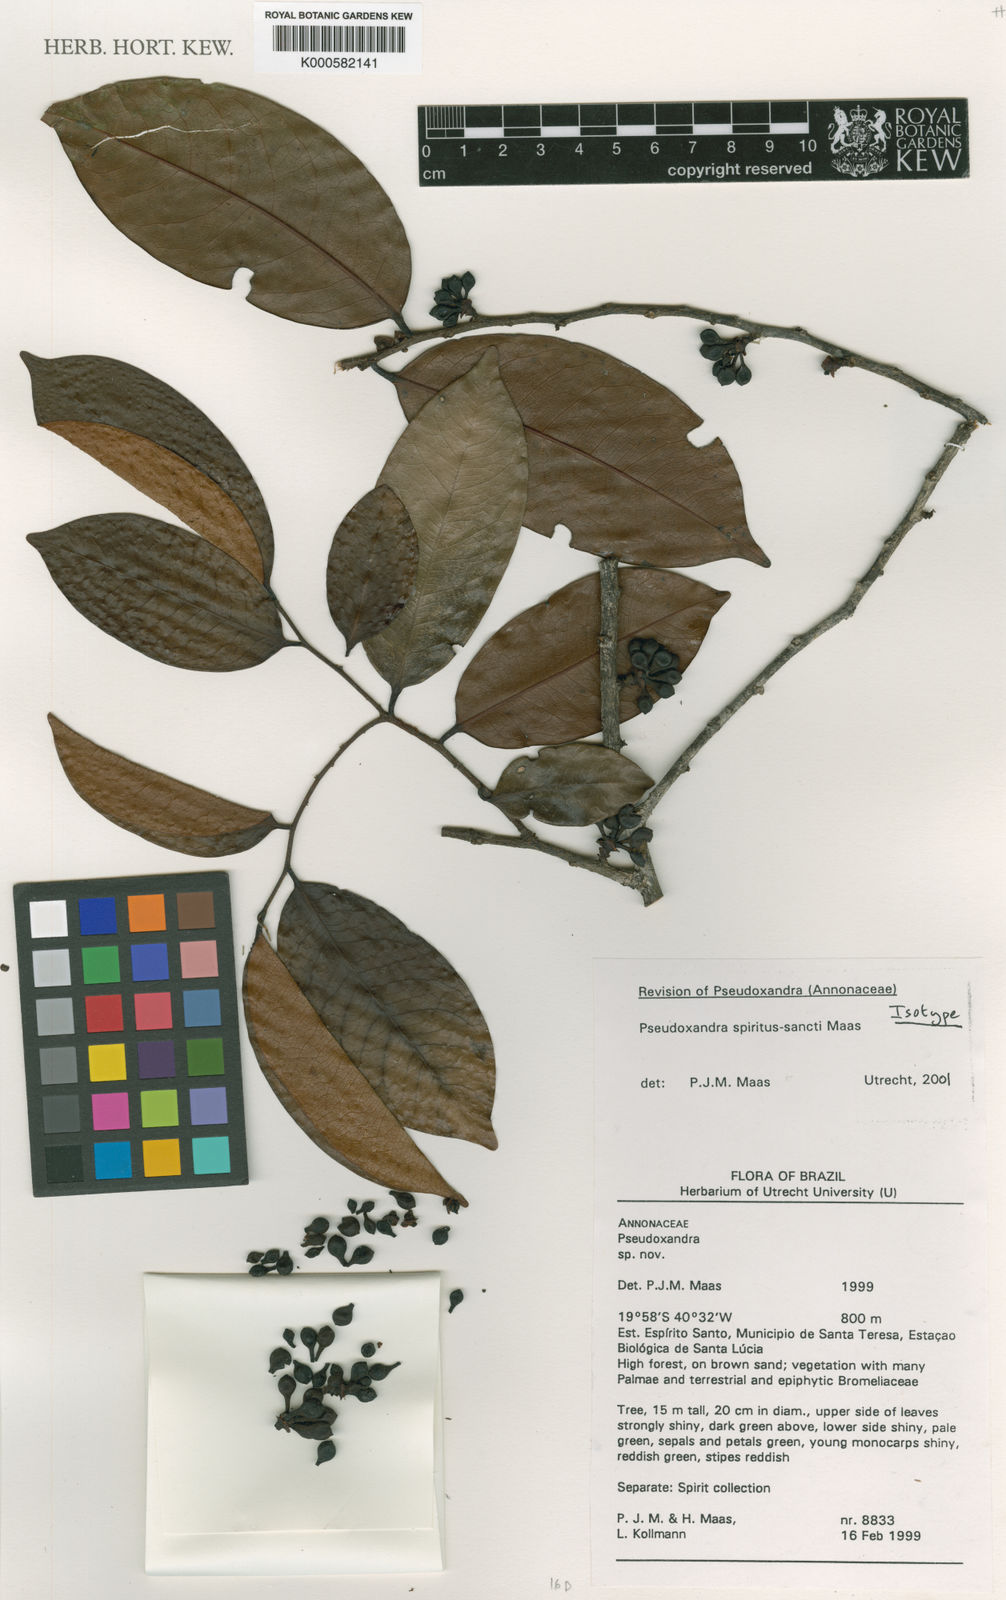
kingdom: Plantae
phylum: Tracheophyta
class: Magnoliopsida
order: Magnoliales
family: Annonaceae
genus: Pseudoxandra
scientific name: Pseudoxandra spiritus-sancti
